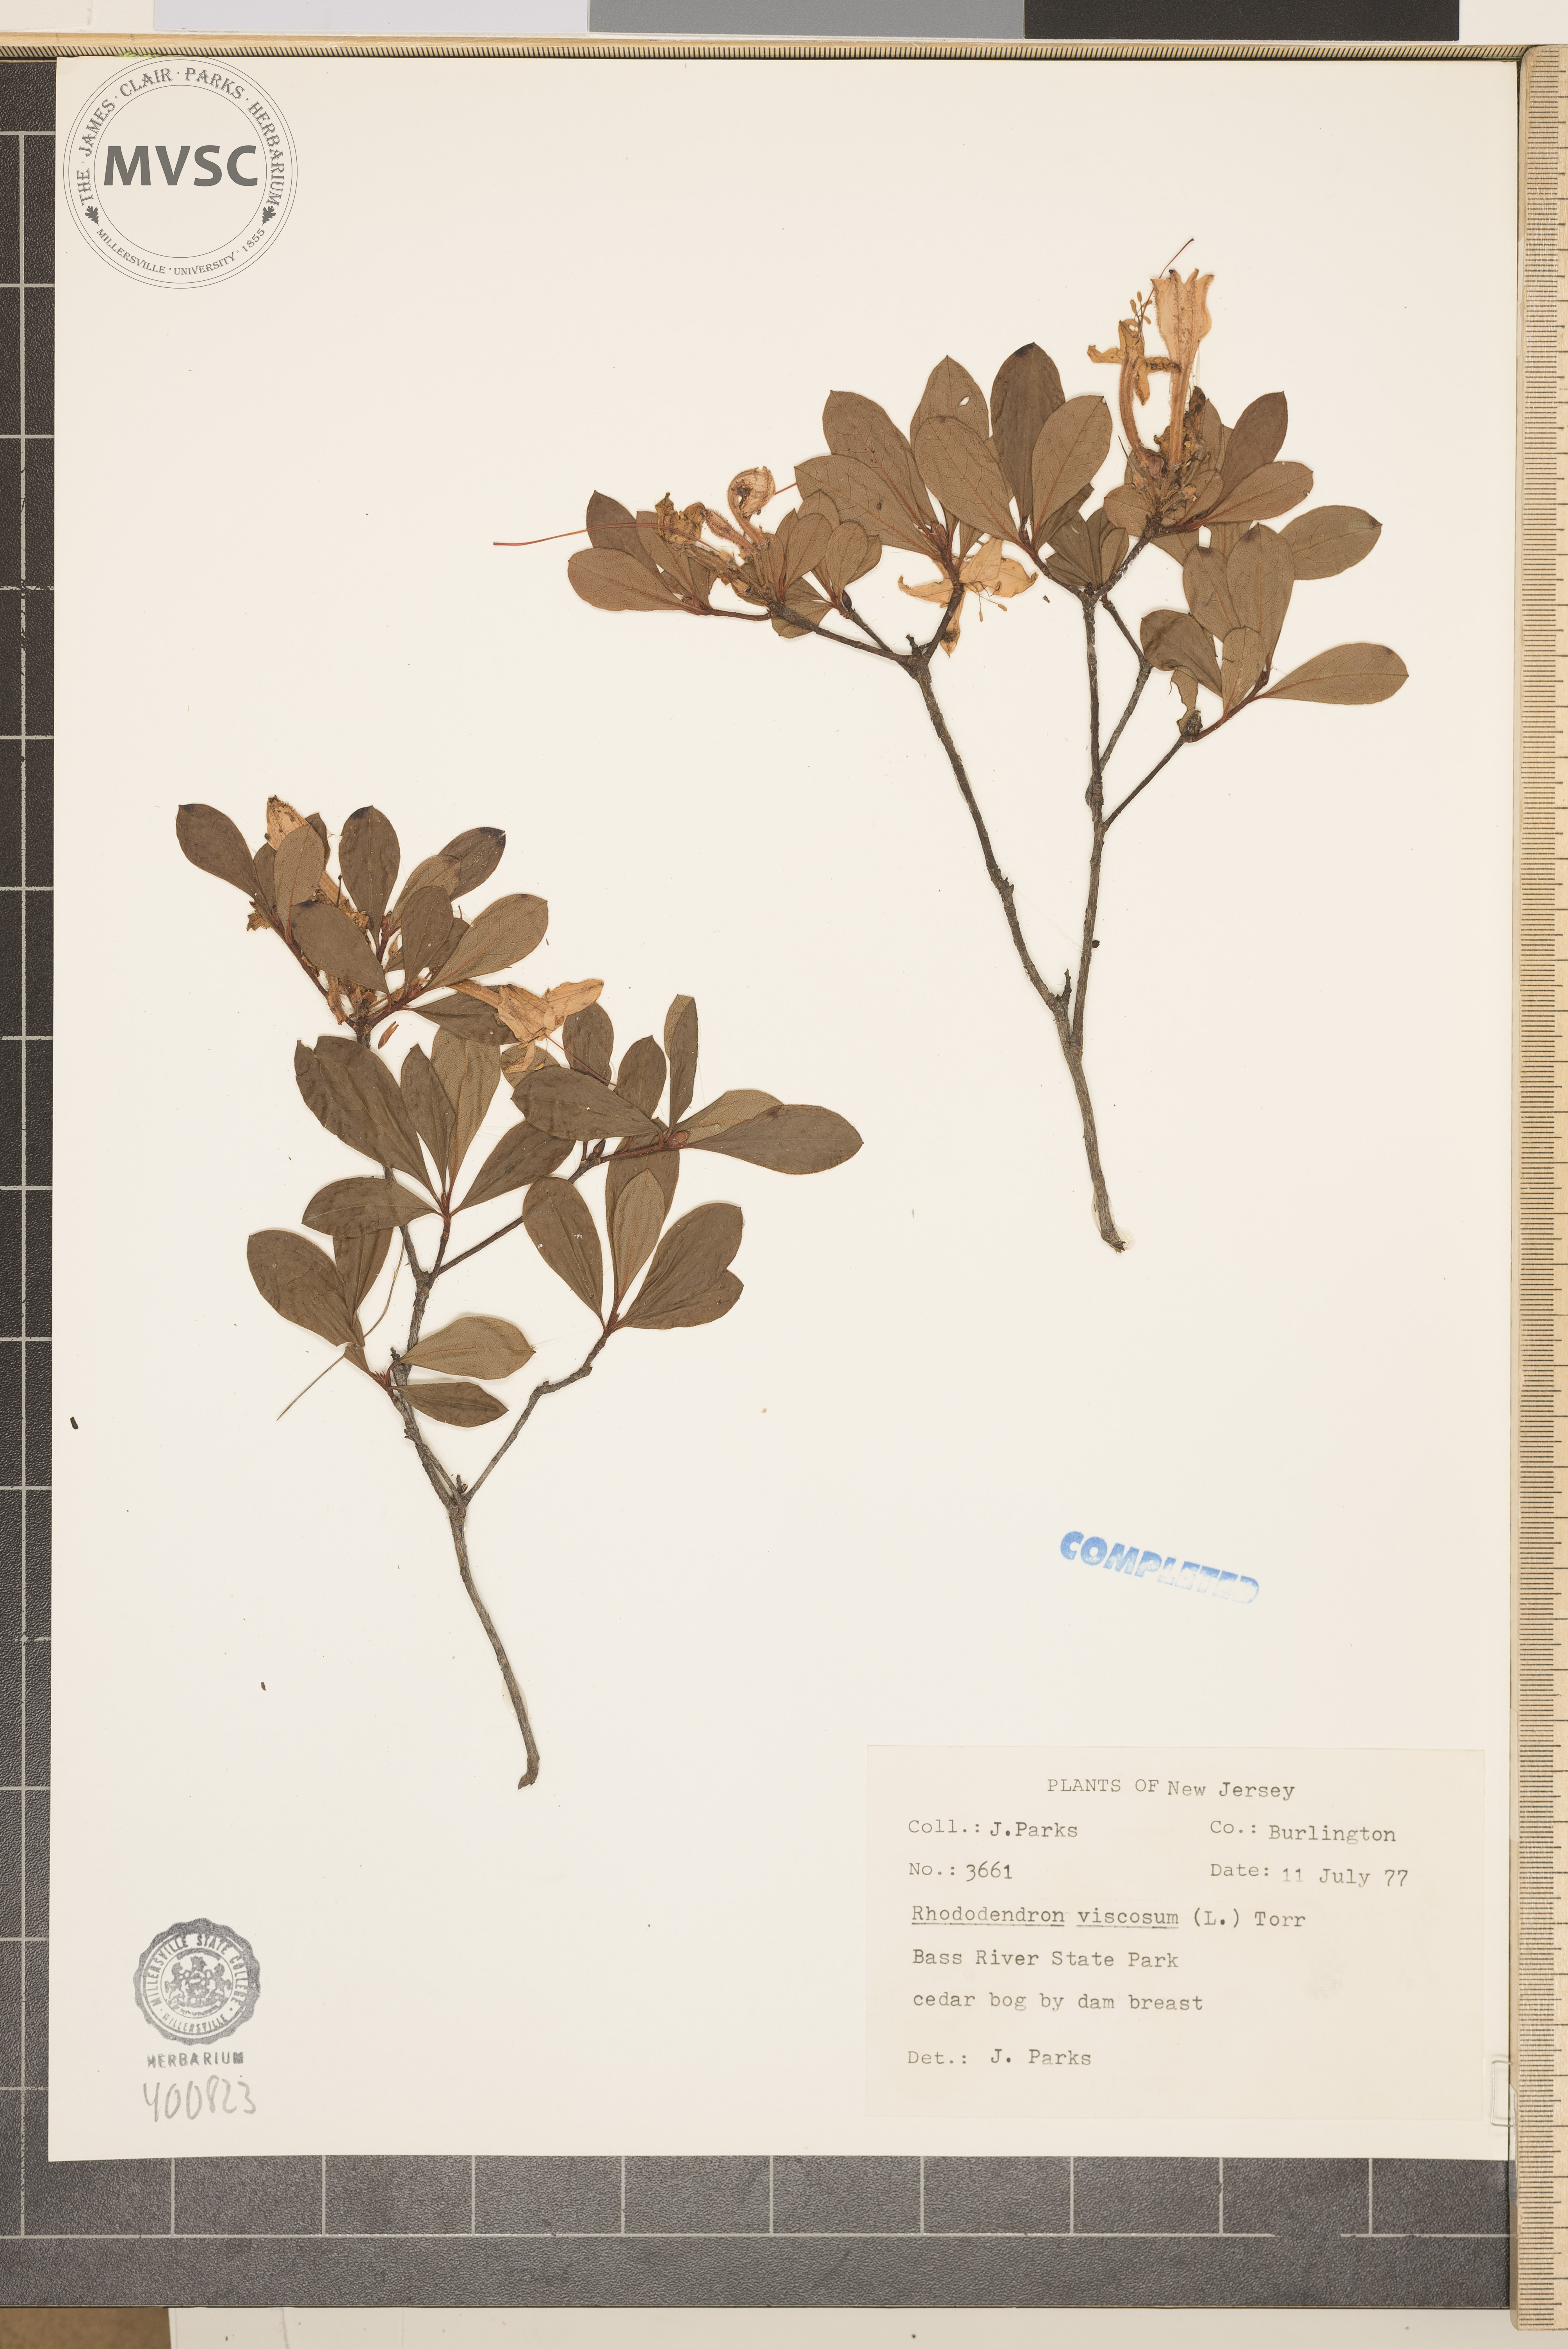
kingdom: Plantae
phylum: Tracheophyta
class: Magnoliopsida
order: Ericales
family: Ericaceae
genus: Rhododendron
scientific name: Rhododendron viscosum
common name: Clammy azalea
